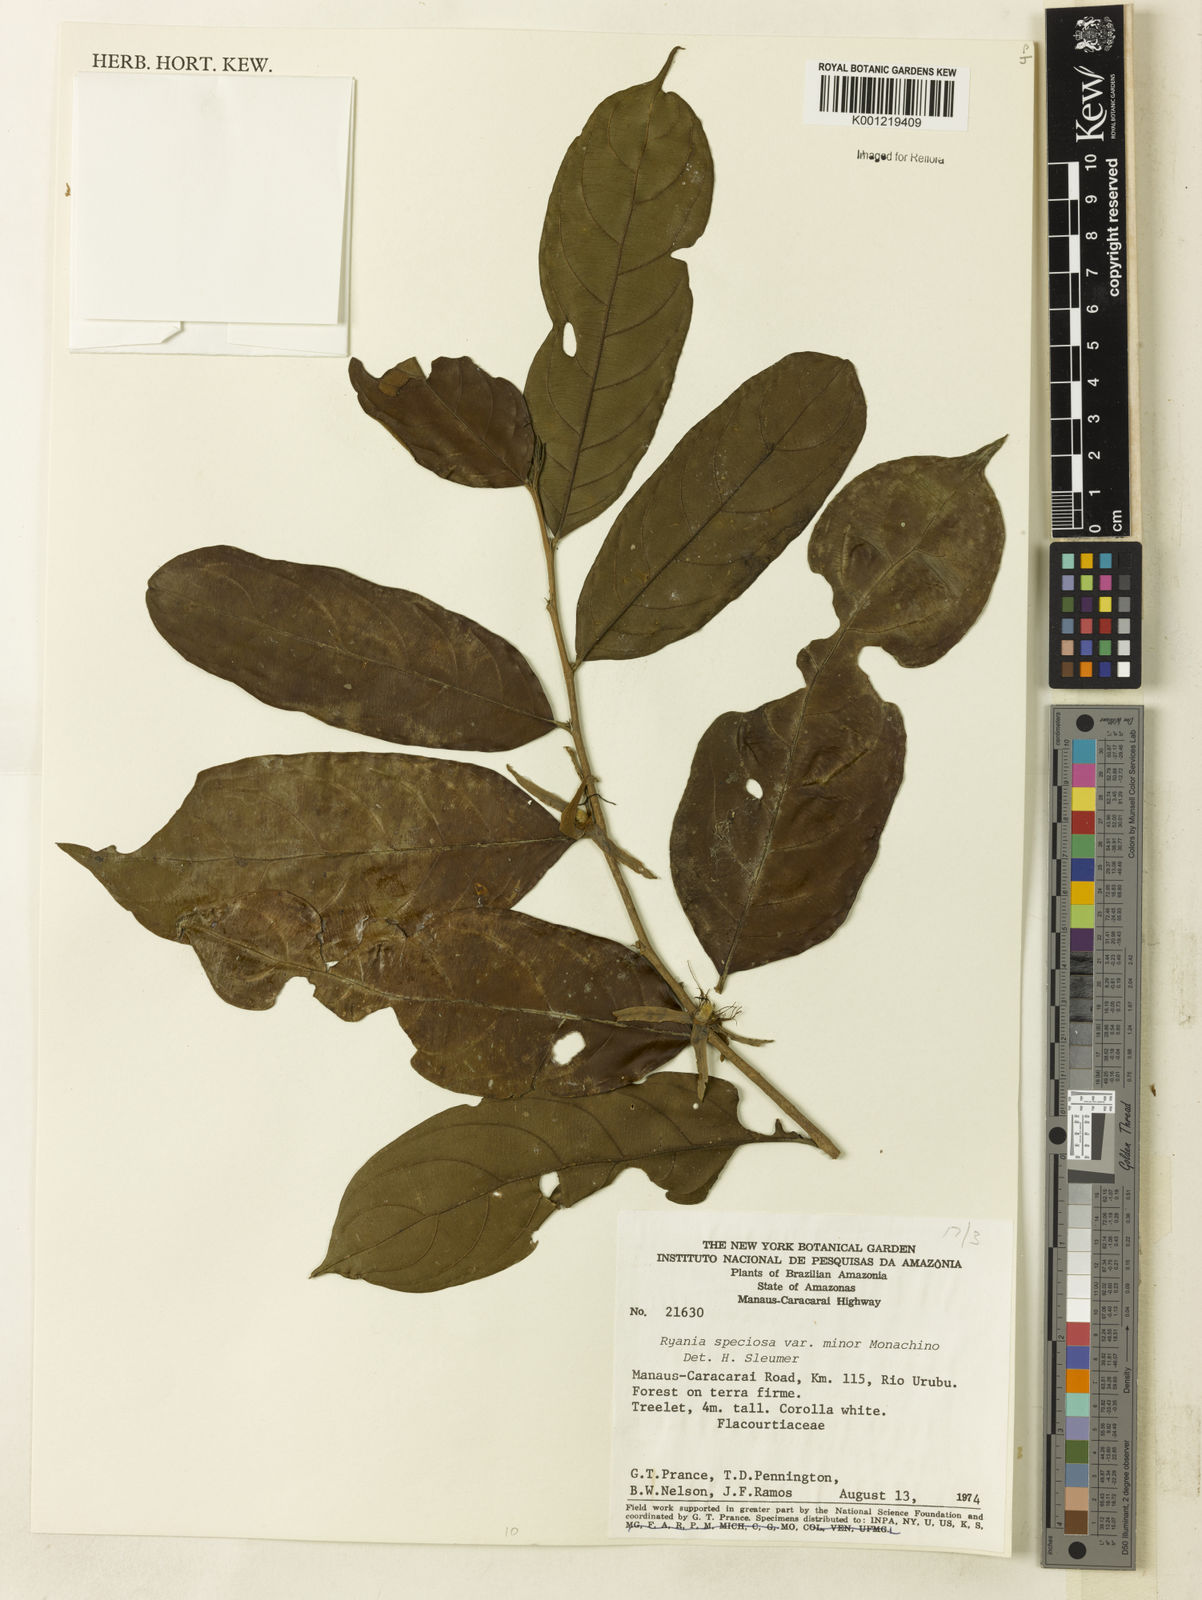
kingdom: Plantae
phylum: Tracheophyta
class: Magnoliopsida
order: Malpighiales
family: Salicaceae
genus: Ryania
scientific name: Ryania speciosa
